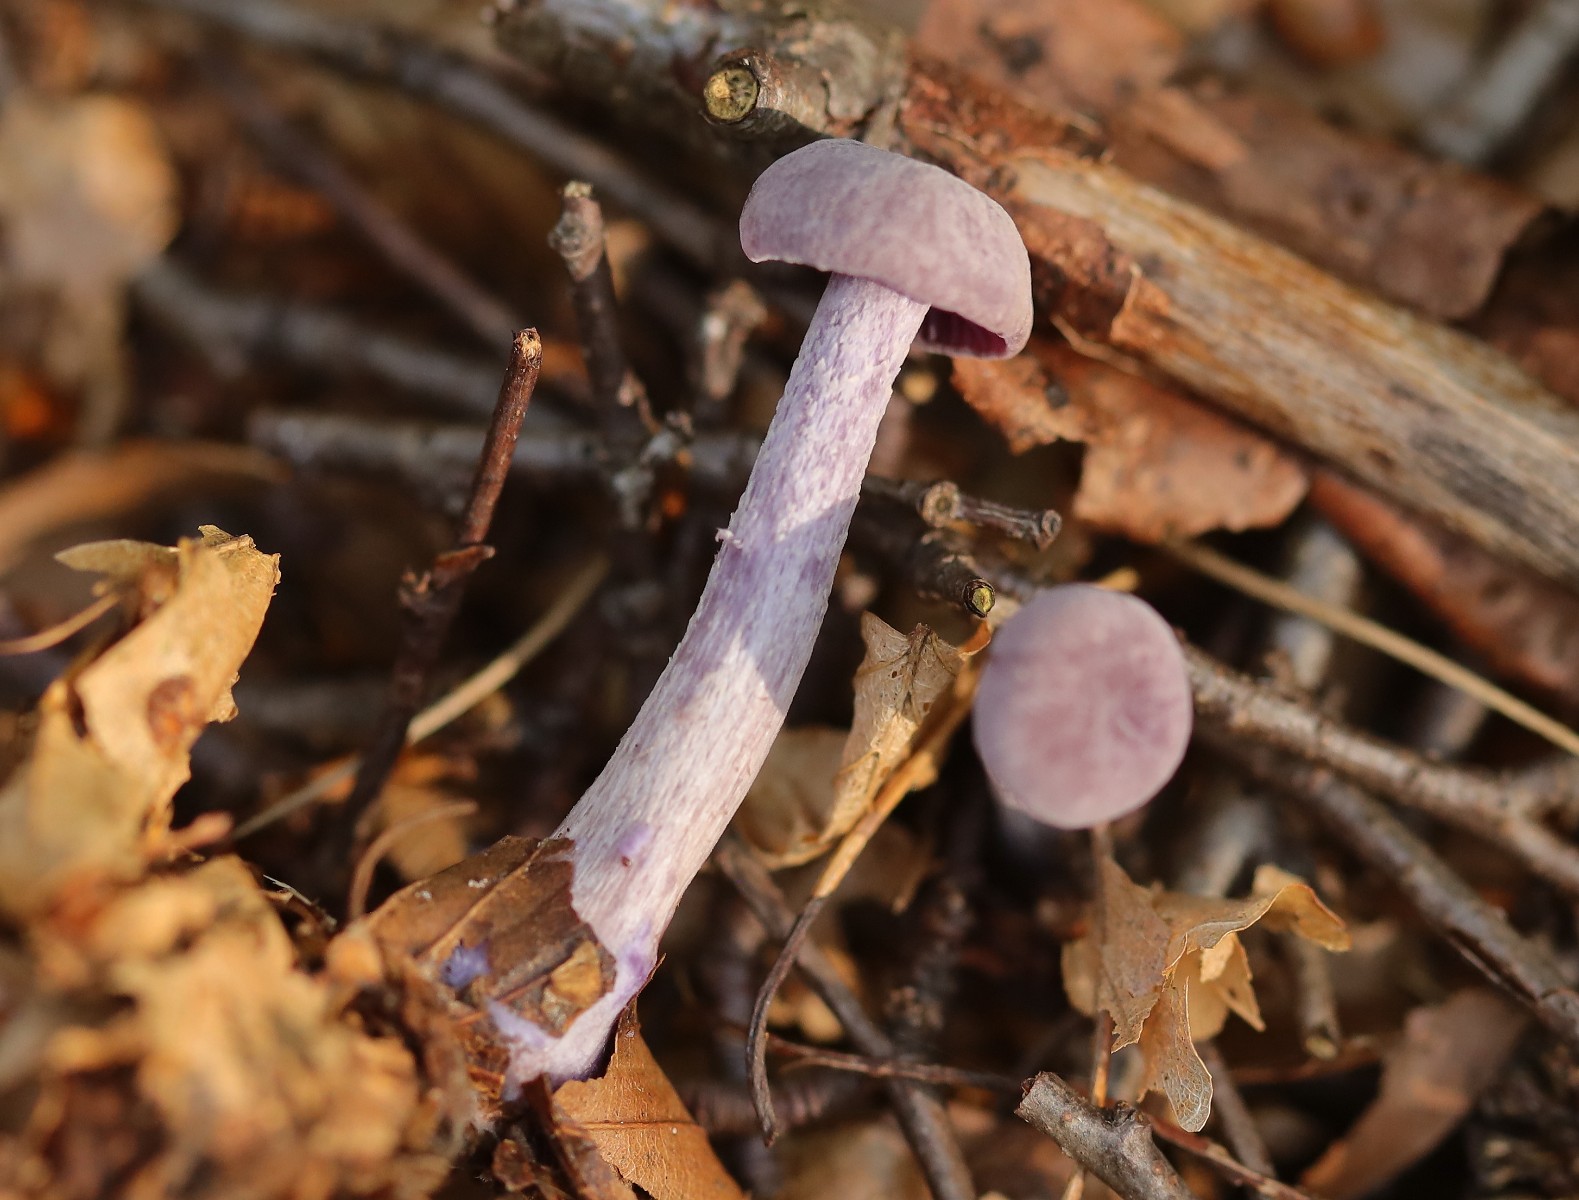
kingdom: Fungi
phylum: Basidiomycota
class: Agaricomycetes
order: Agaricales
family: Hydnangiaceae
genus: Laccaria
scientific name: Laccaria amethystina
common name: violet ametysthat
